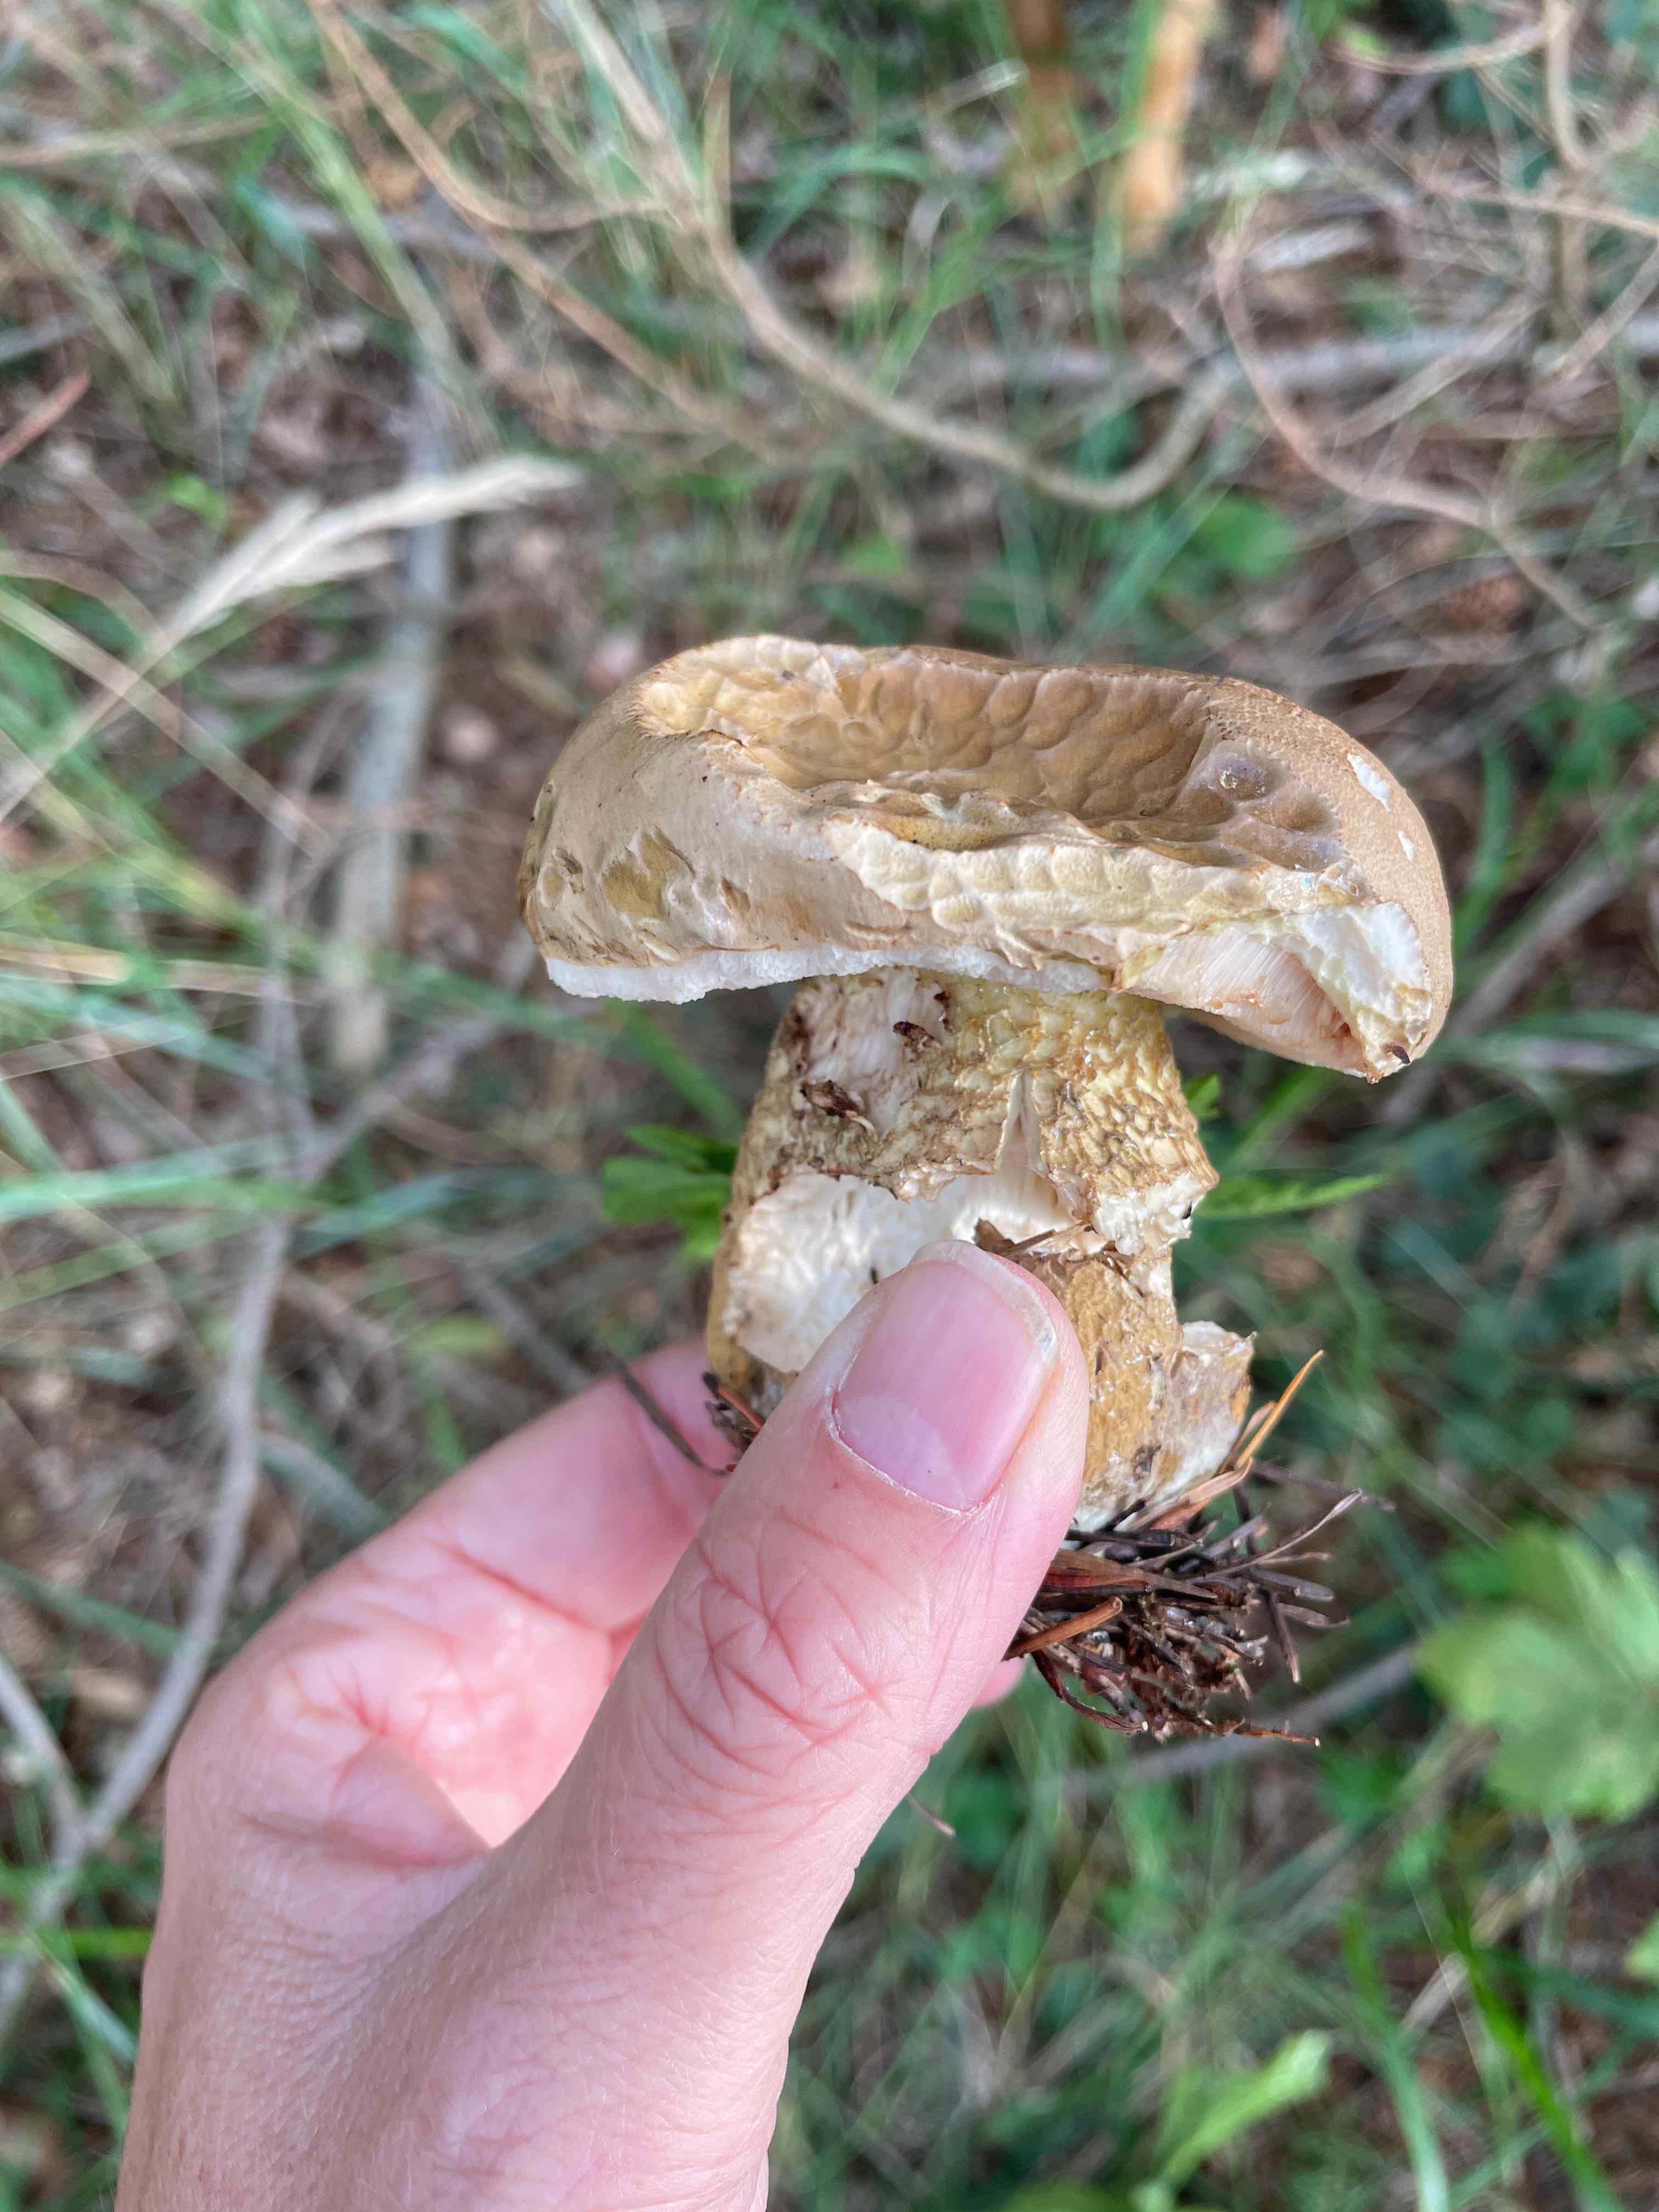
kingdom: Fungi
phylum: Basidiomycota
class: Agaricomycetes
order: Boletales
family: Boletaceae
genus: Tylopilus
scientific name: Tylopilus felleus
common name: galderørhat
